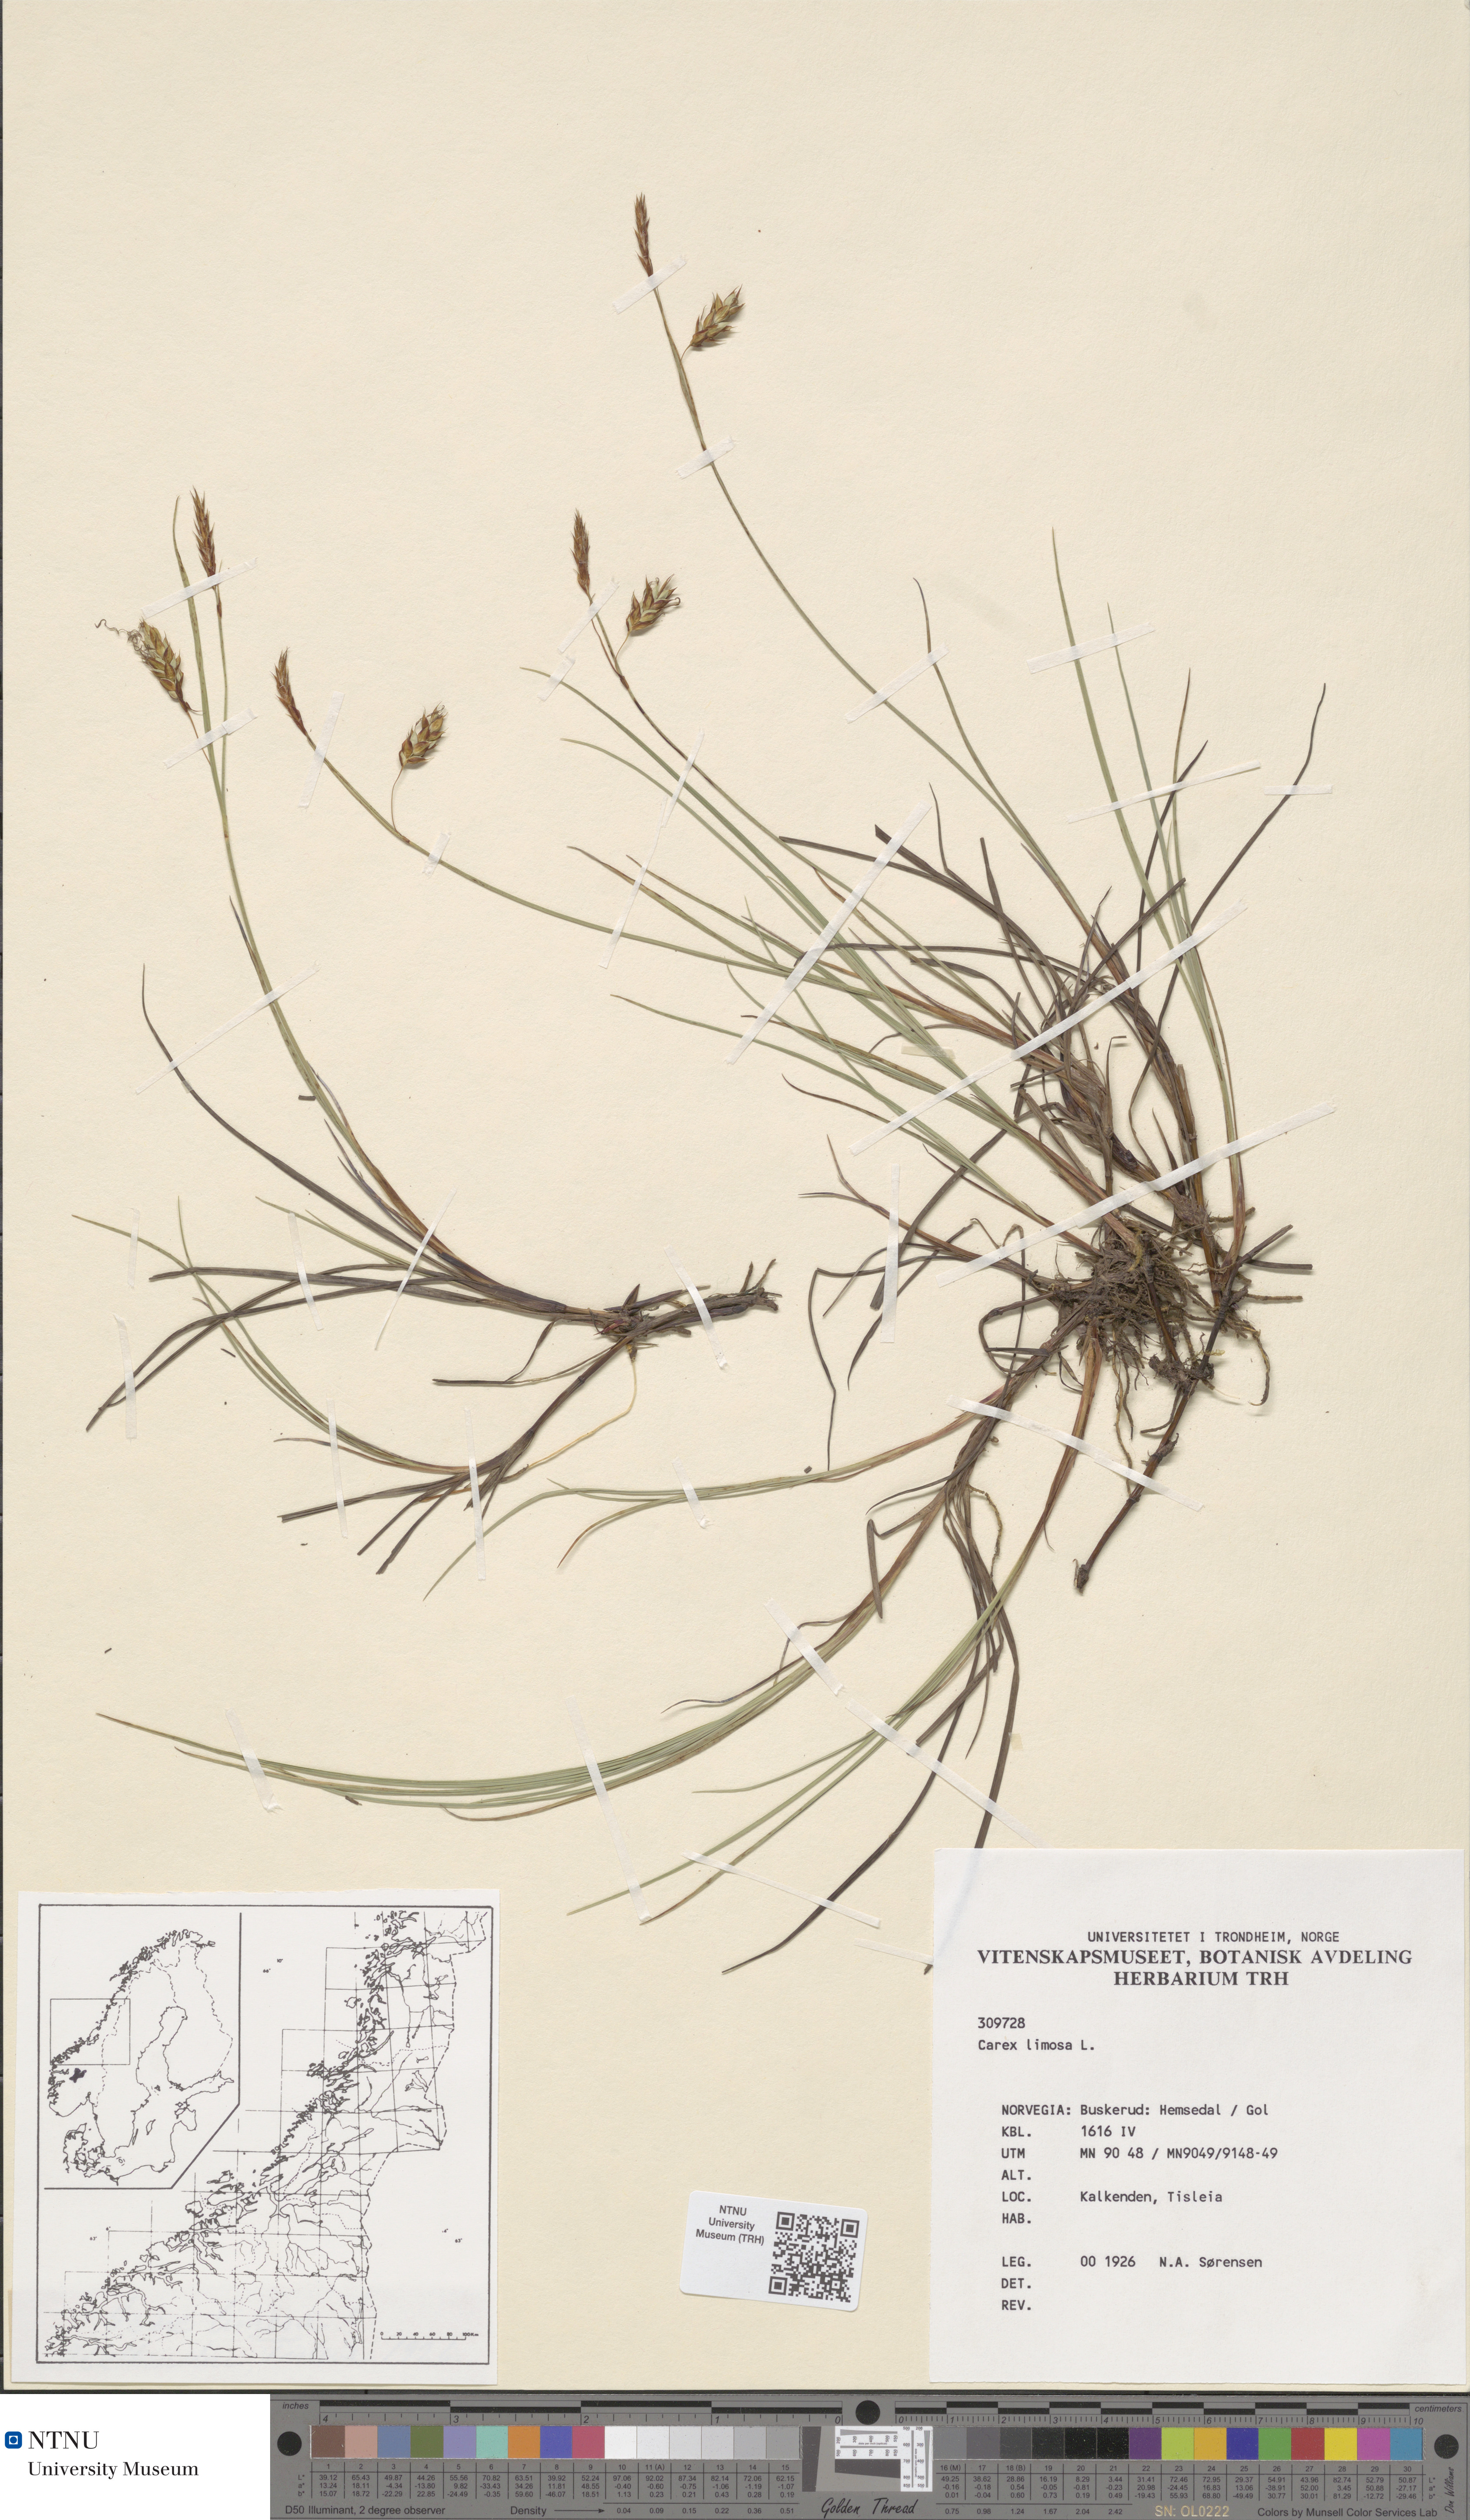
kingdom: Plantae
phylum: Tracheophyta
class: Liliopsida
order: Poales
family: Cyperaceae
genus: Carex
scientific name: Carex limosa
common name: Bog sedge
